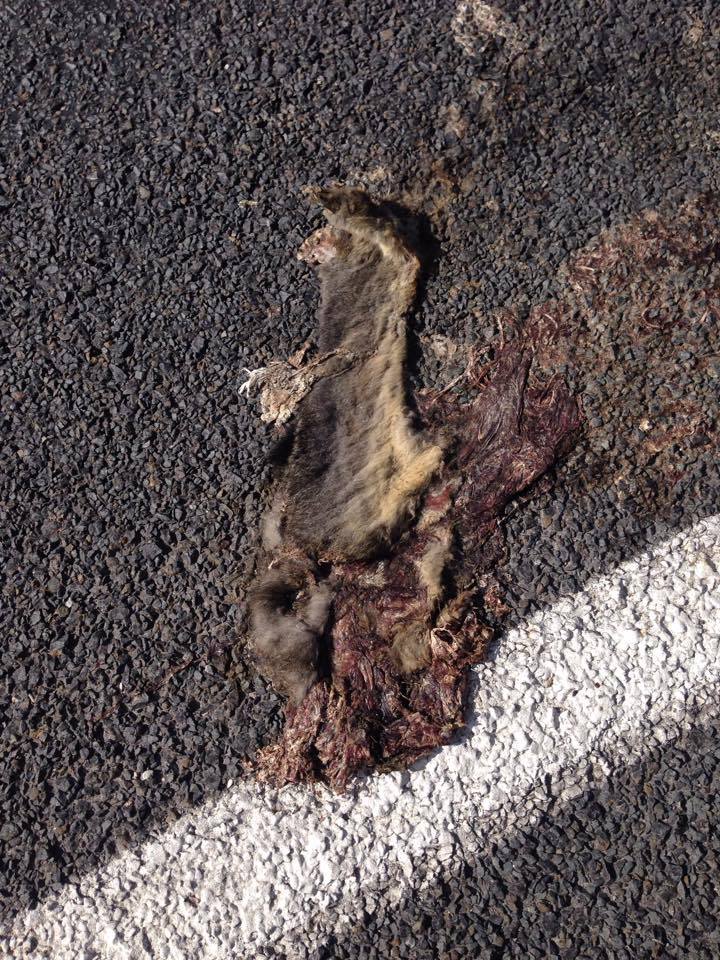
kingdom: Animalia
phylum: Chordata
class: Mammalia
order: Diprotodontia
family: Phalangeridae
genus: Trichosurus
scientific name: Trichosurus vulpecula
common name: Common brushtail
